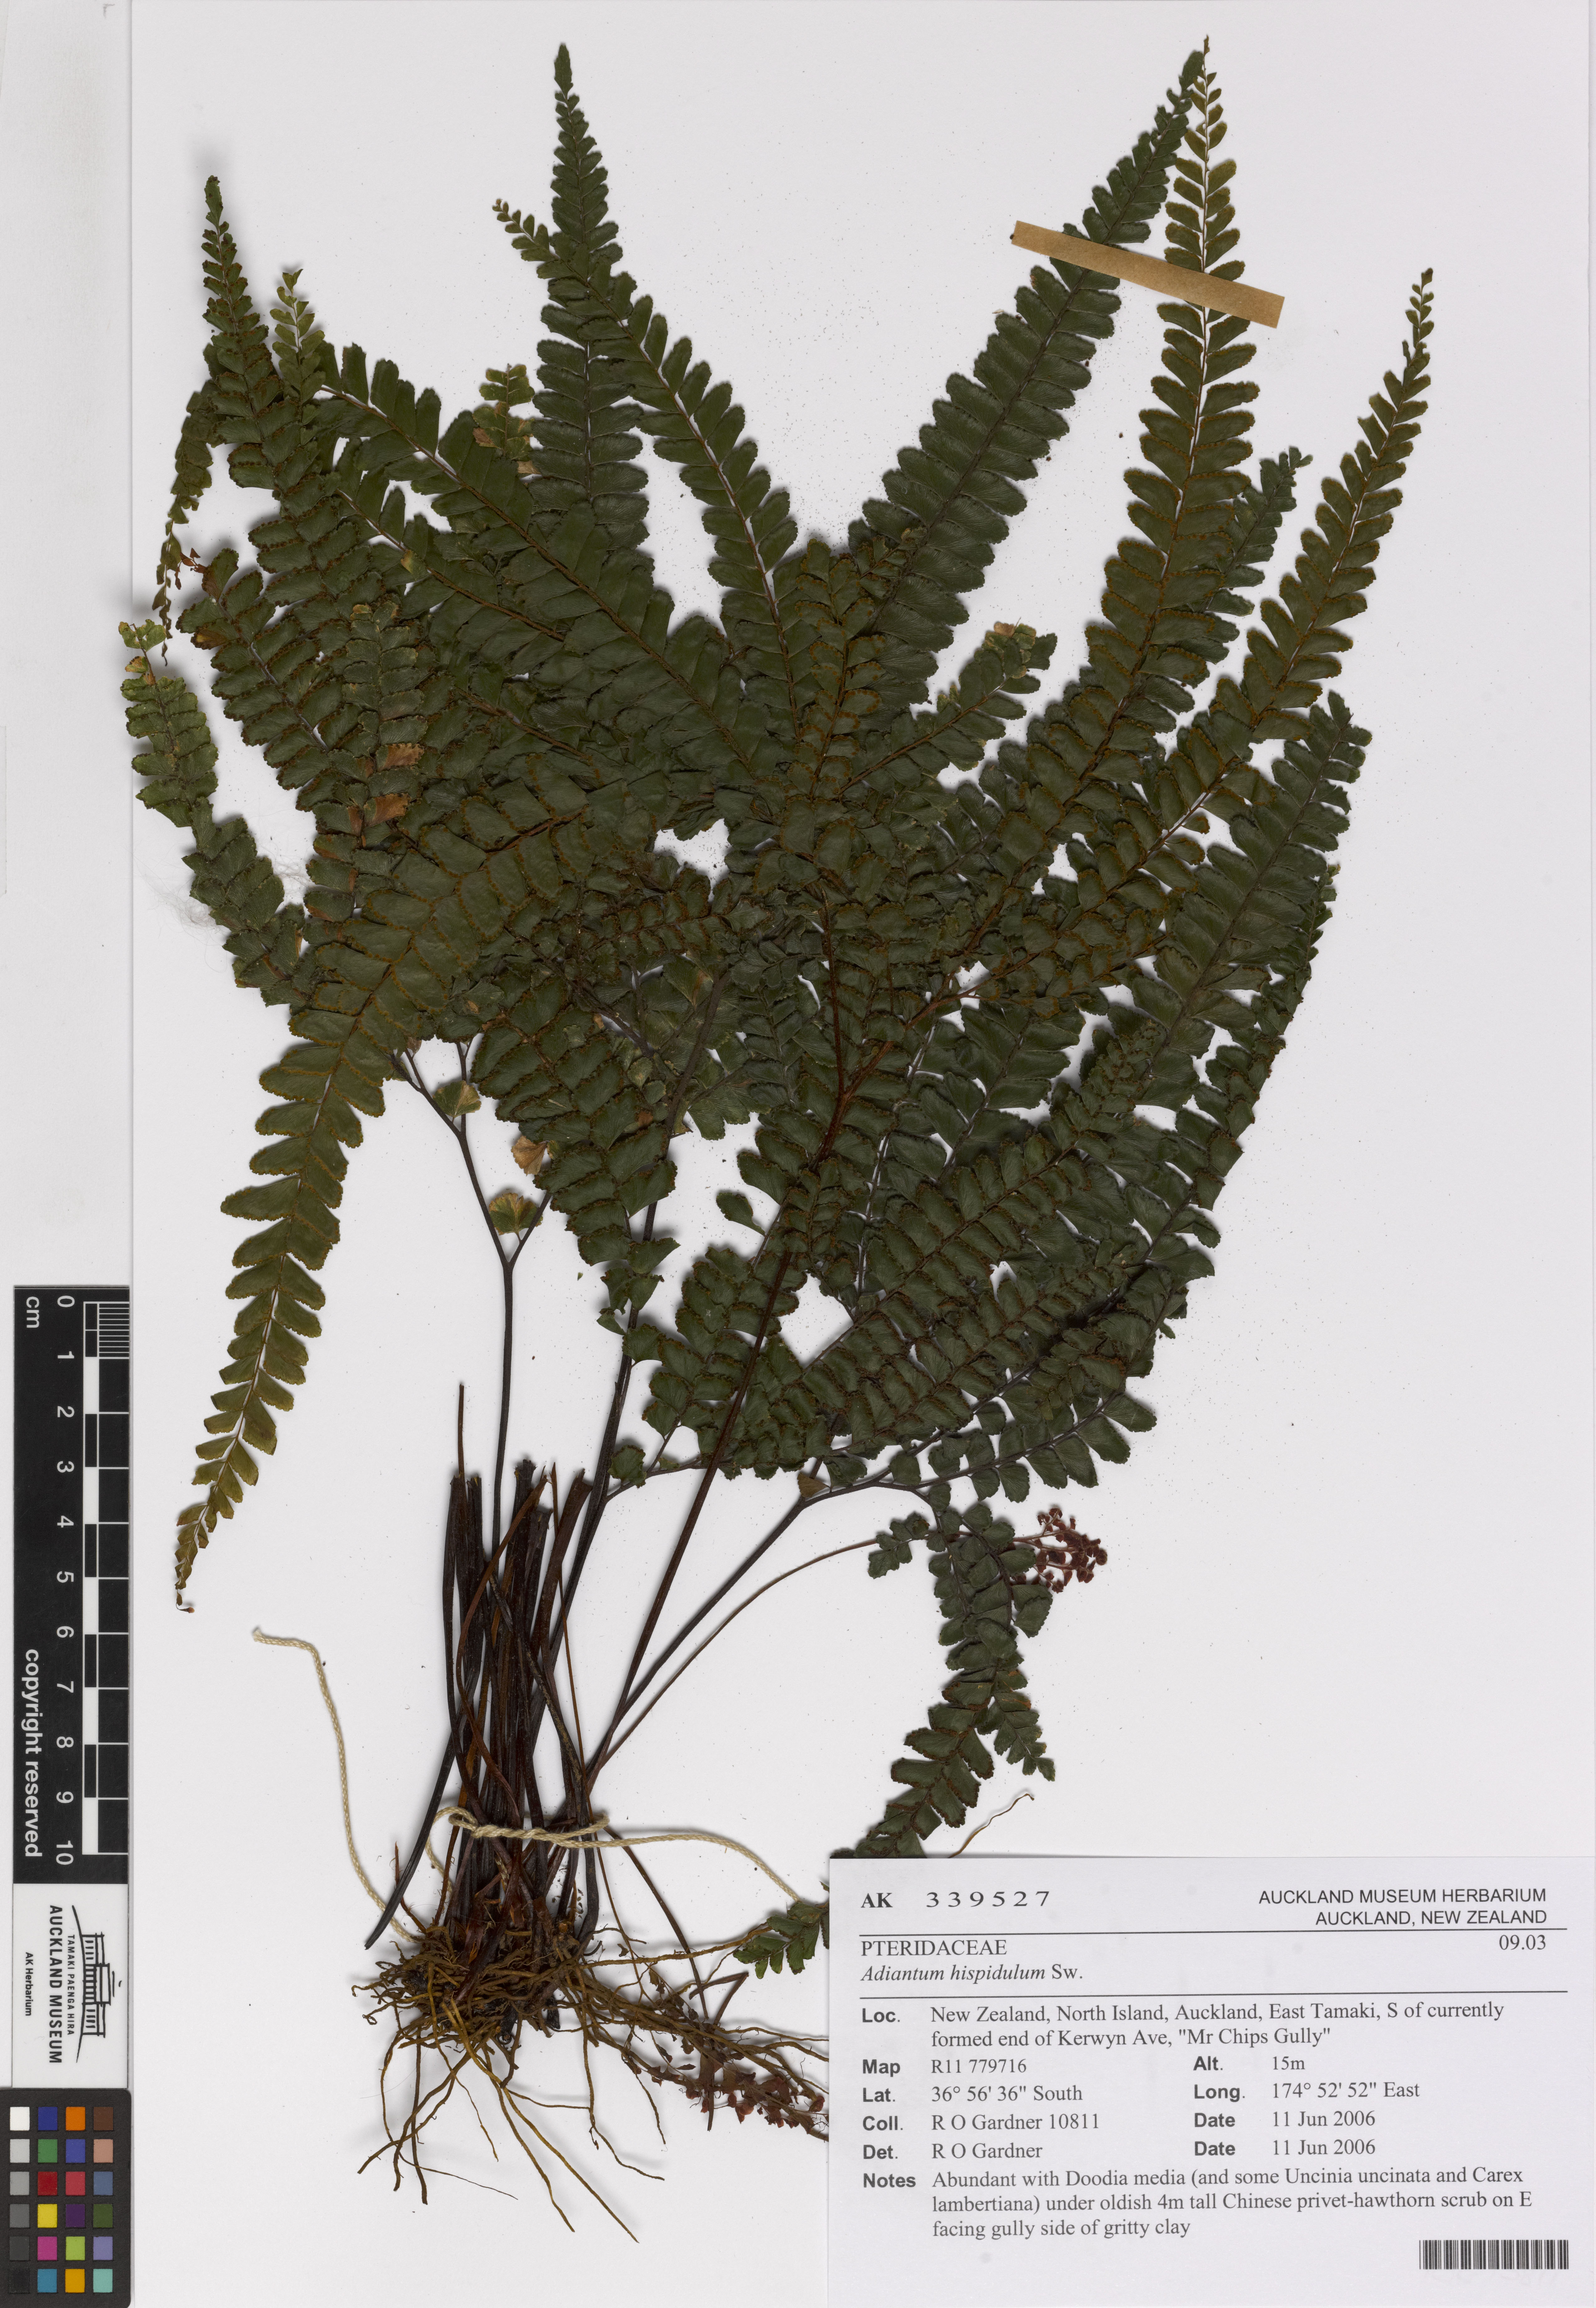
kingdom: Plantae
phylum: Tracheophyta
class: Polypodiopsida
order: Polypodiales
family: Pteridaceae
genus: Adiantum
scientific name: Adiantum hispidulum
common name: Rough maidenhair
